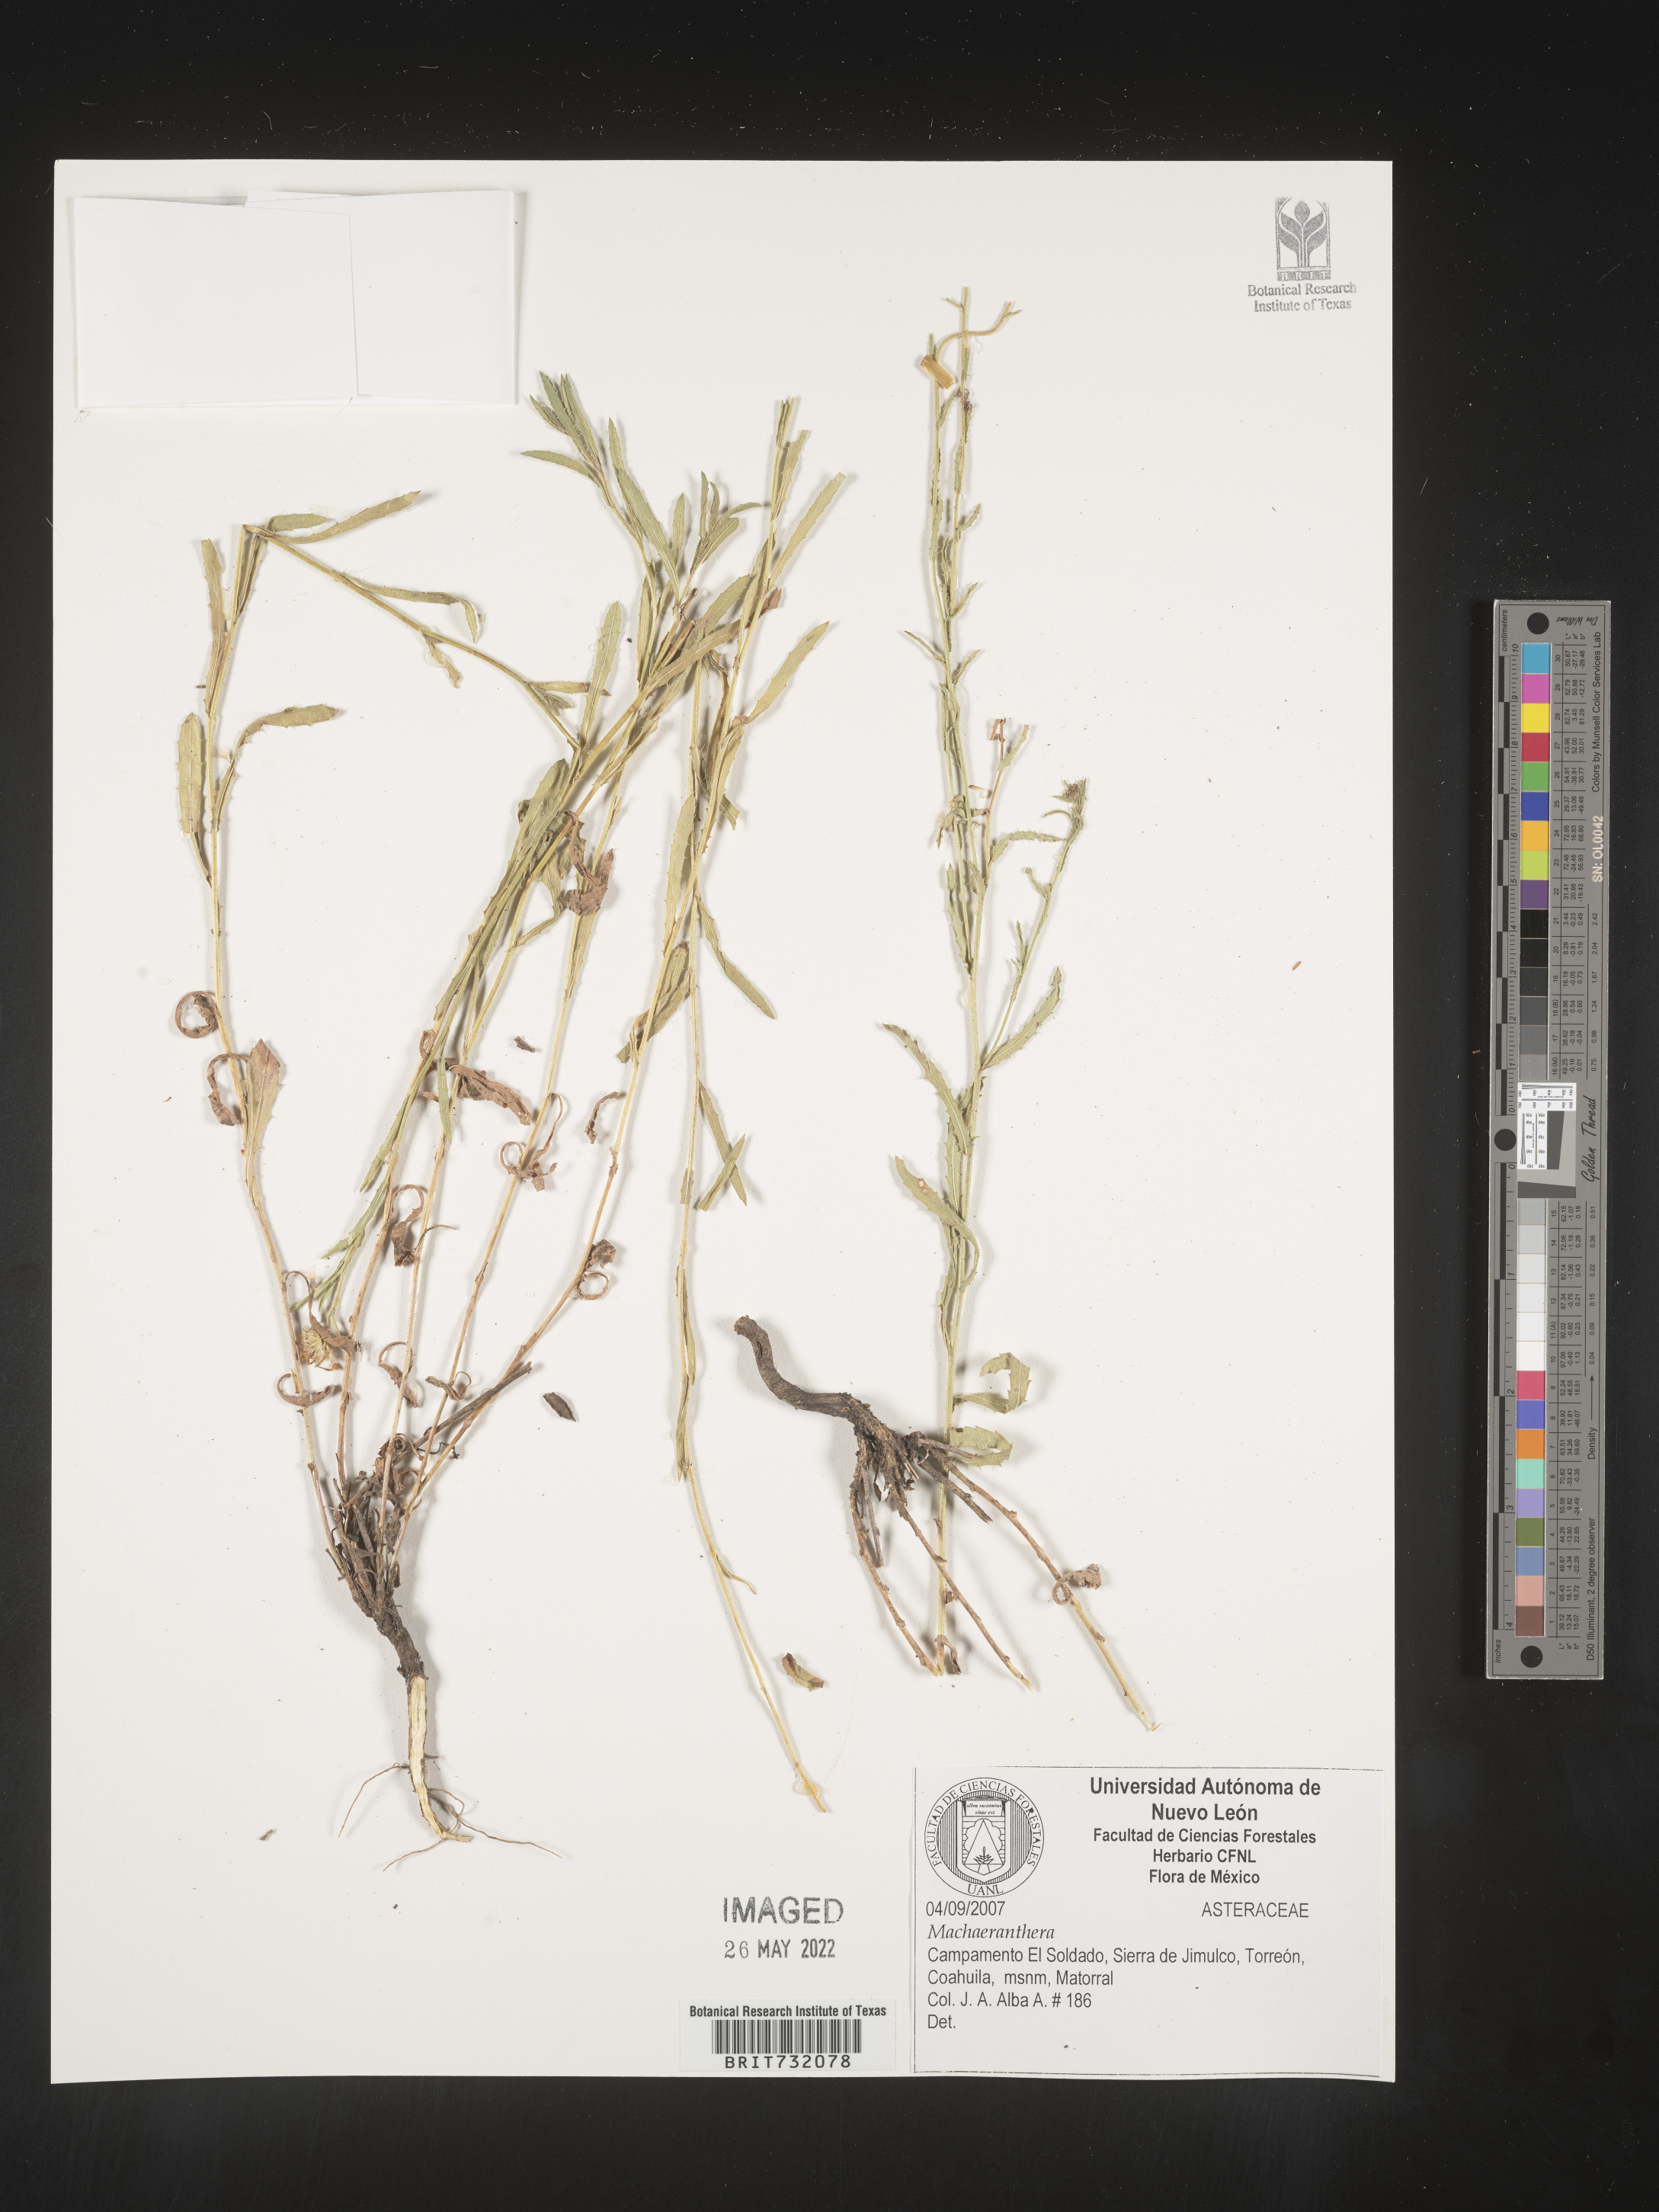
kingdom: Plantae
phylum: Tracheophyta
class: Magnoliopsida
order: Asterales
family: Asteraceae
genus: Machaeranthera
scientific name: Machaeranthera
